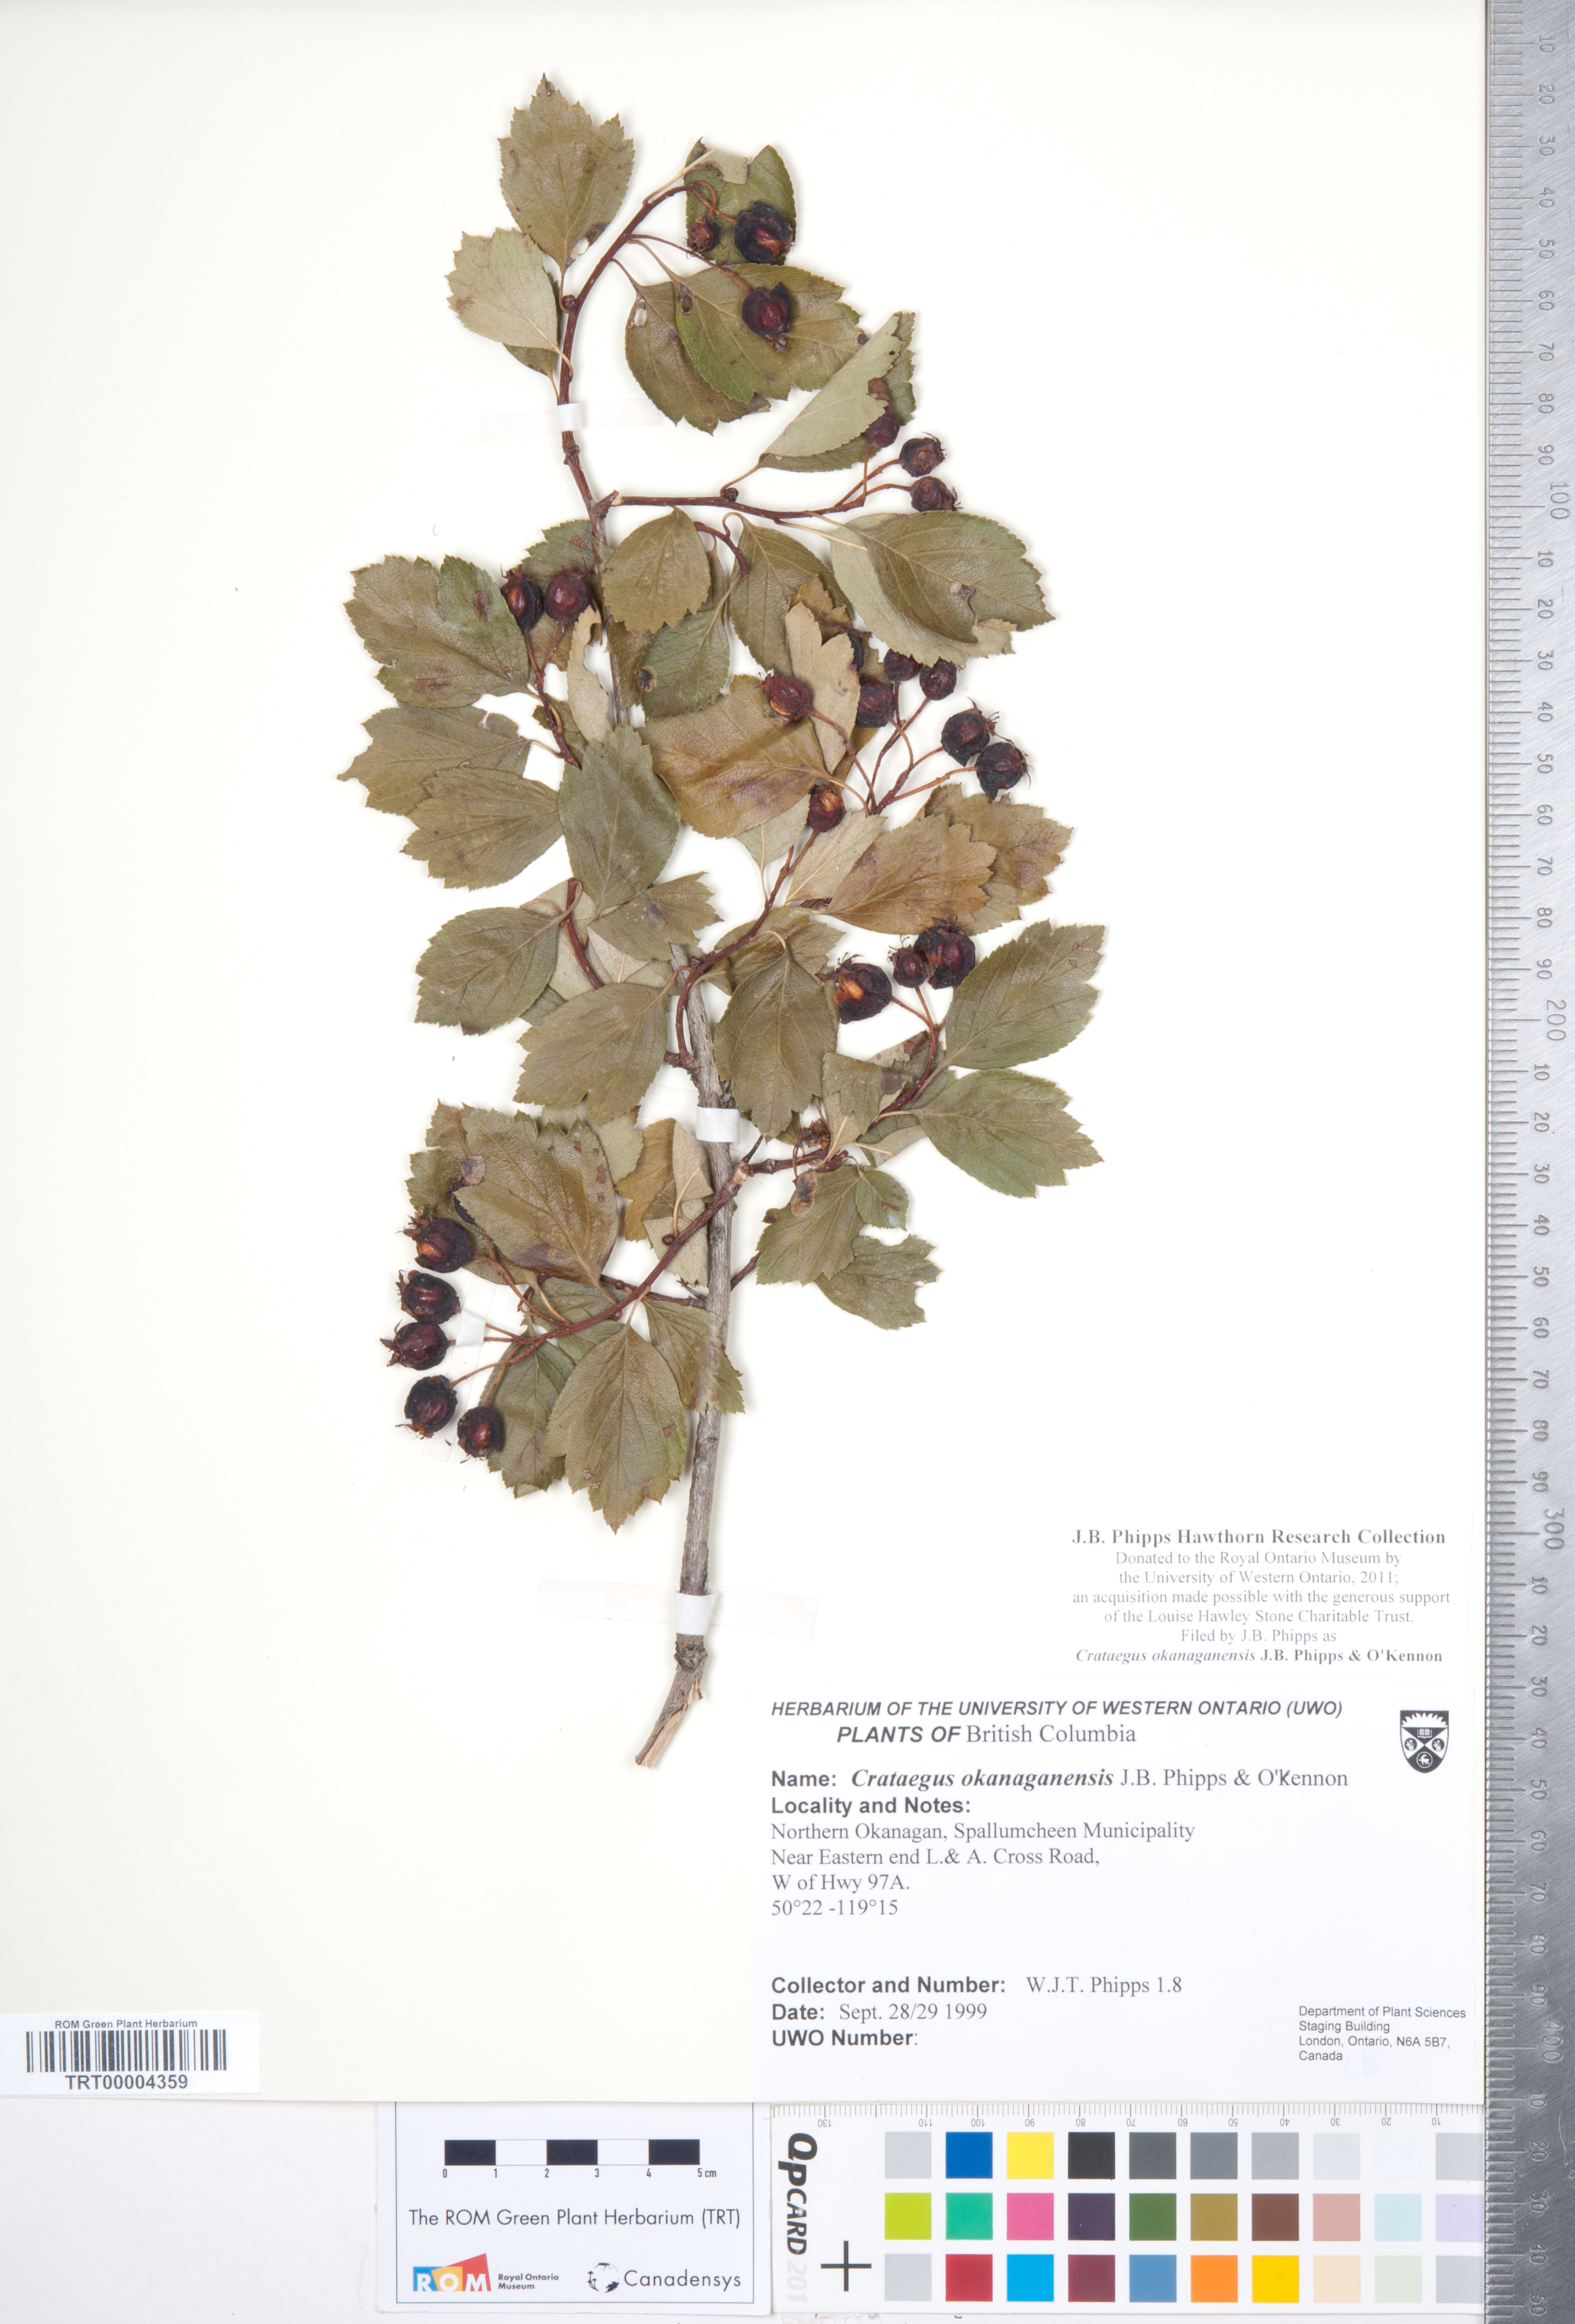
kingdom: Plantae
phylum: Tracheophyta
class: Magnoliopsida
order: Rosales
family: Rosaceae
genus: Crataegus
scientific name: Crataegus okanaganensis
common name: Okanagan valley hawthorn
